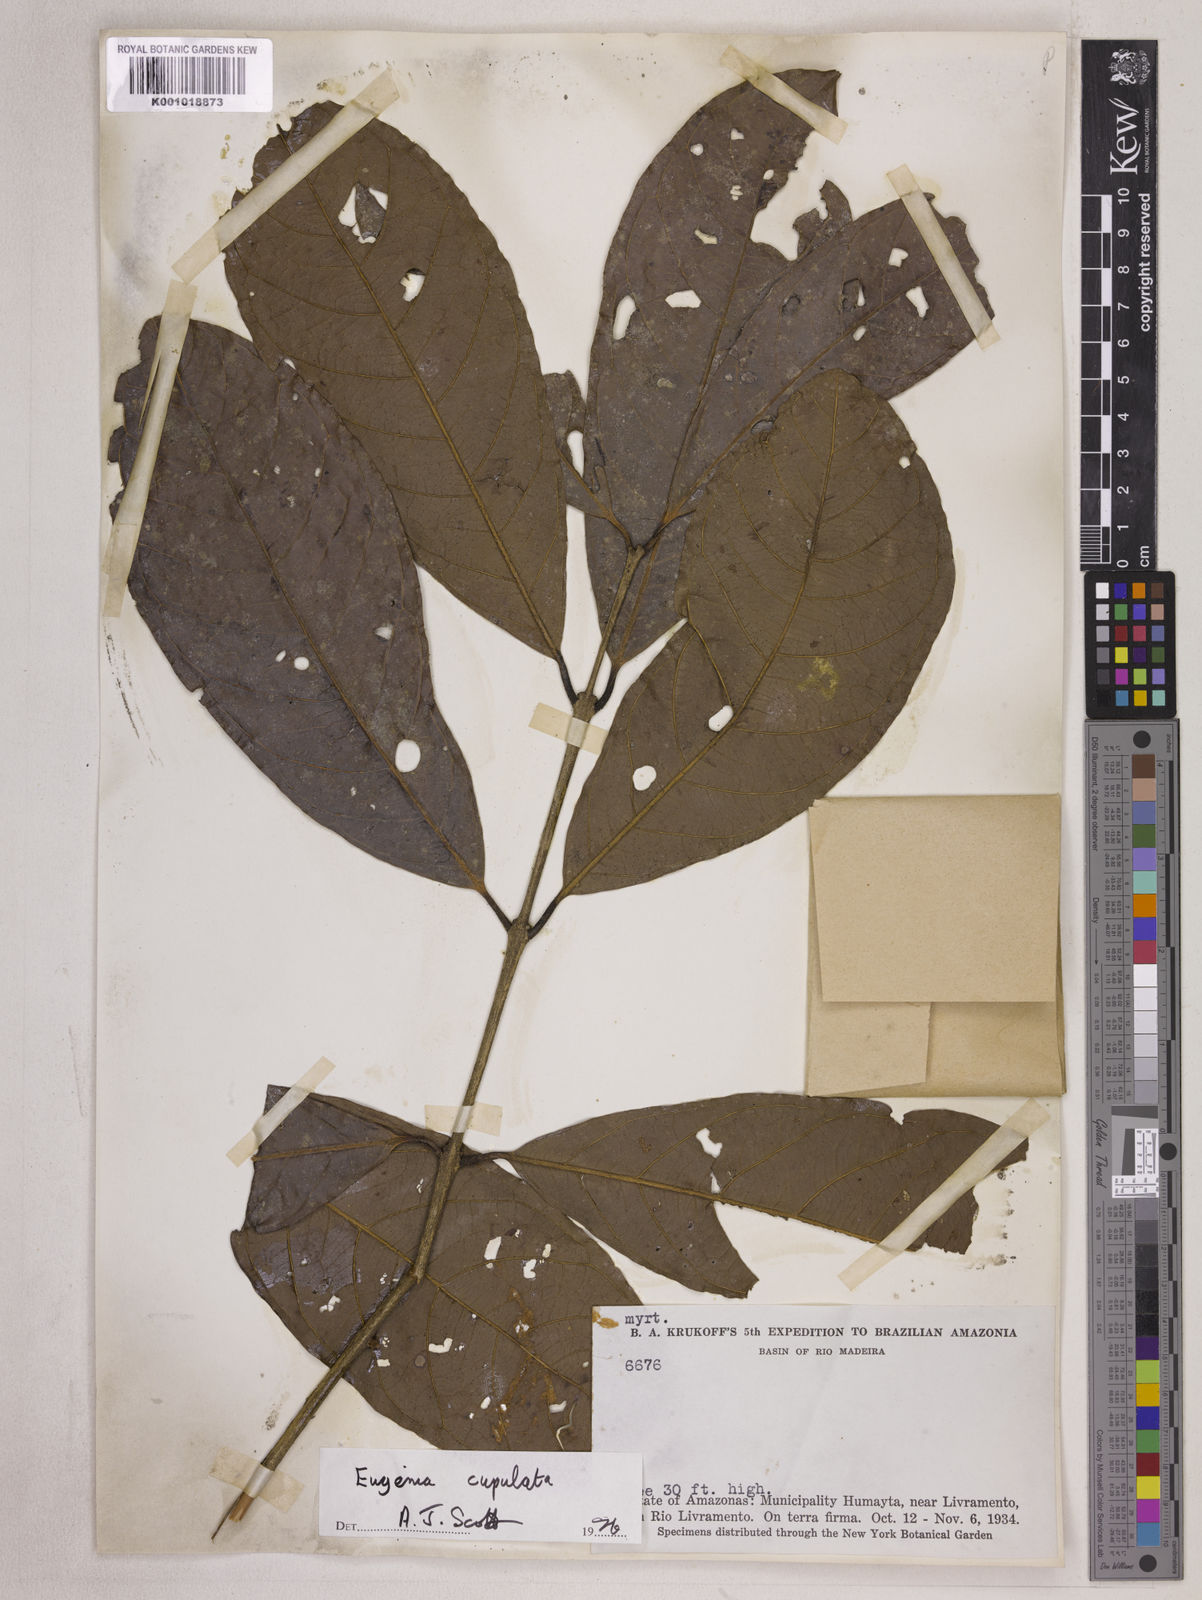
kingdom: Plantae
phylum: Tracheophyta
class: Magnoliopsida
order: Myrtales
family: Myrtaceae
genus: Eugenia
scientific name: Eugenia glomeruliflora
